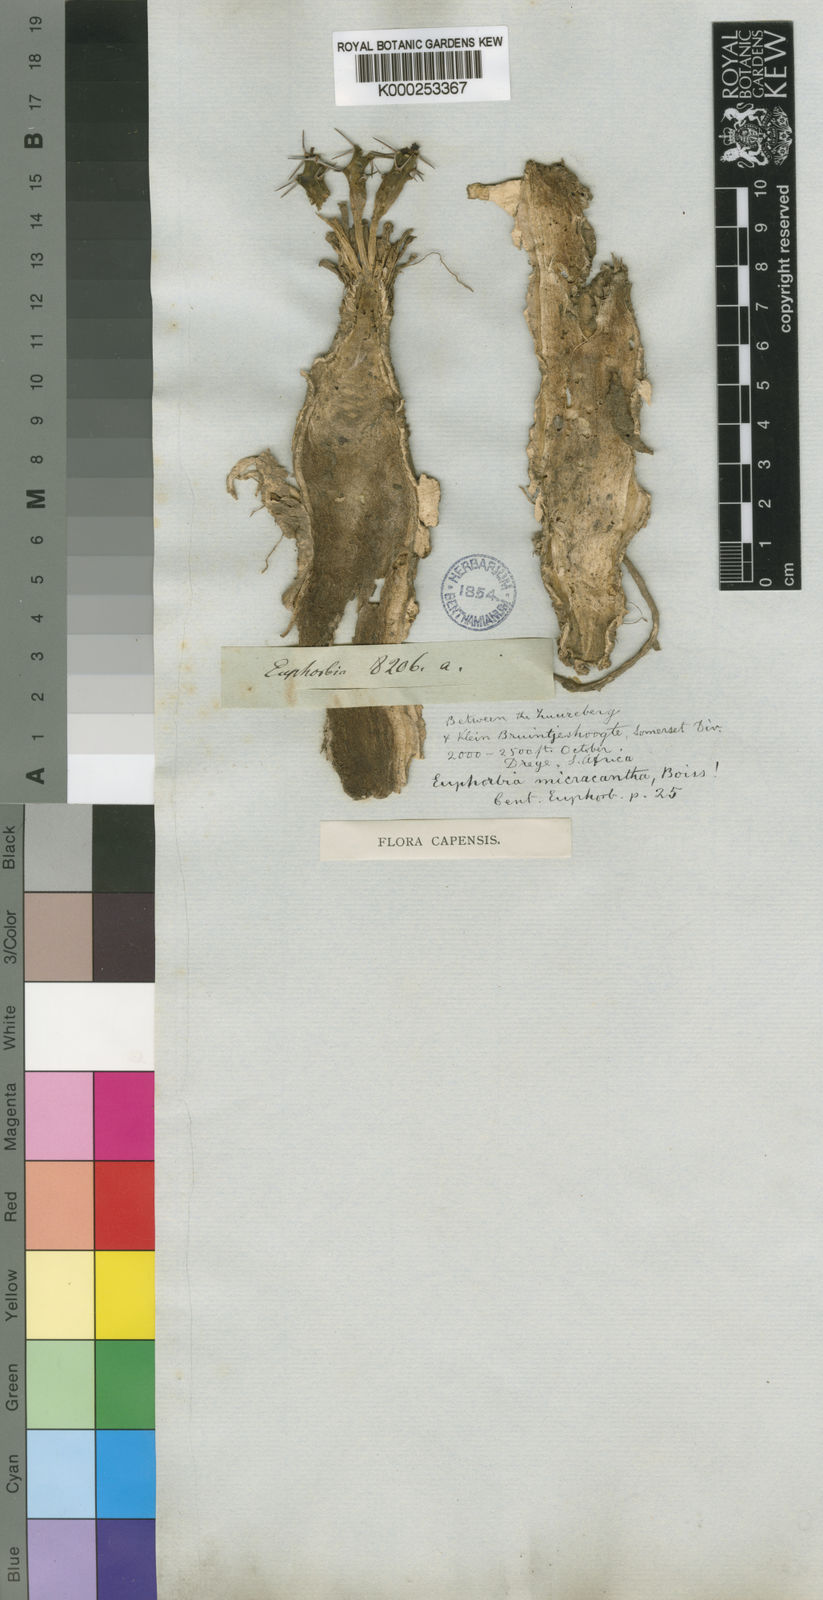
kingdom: Plantae
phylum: Tracheophyta
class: Magnoliopsida
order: Malpighiales
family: Euphorbiaceae
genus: Euphorbia
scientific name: Euphorbia micracantha
